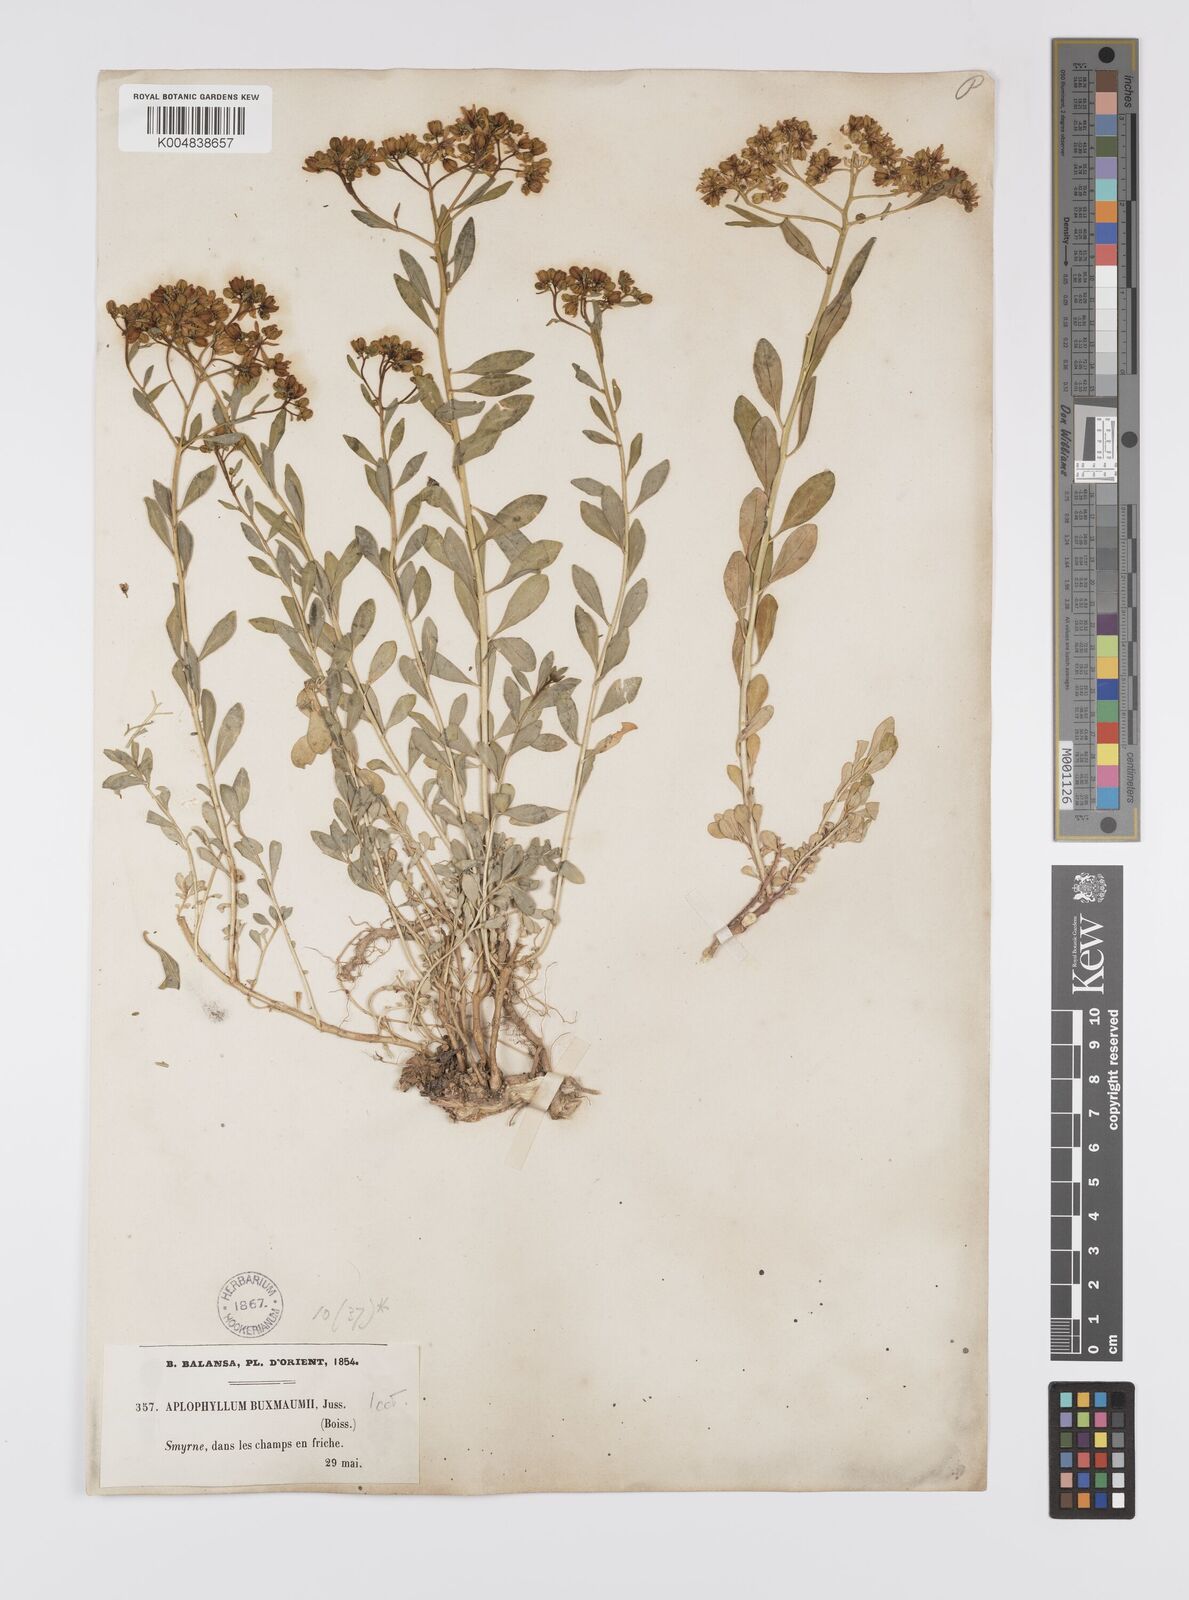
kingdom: Plantae
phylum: Tracheophyta
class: Magnoliopsida
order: Sapindales
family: Rutaceae
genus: Haplophyllum
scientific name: Haplophyllum
